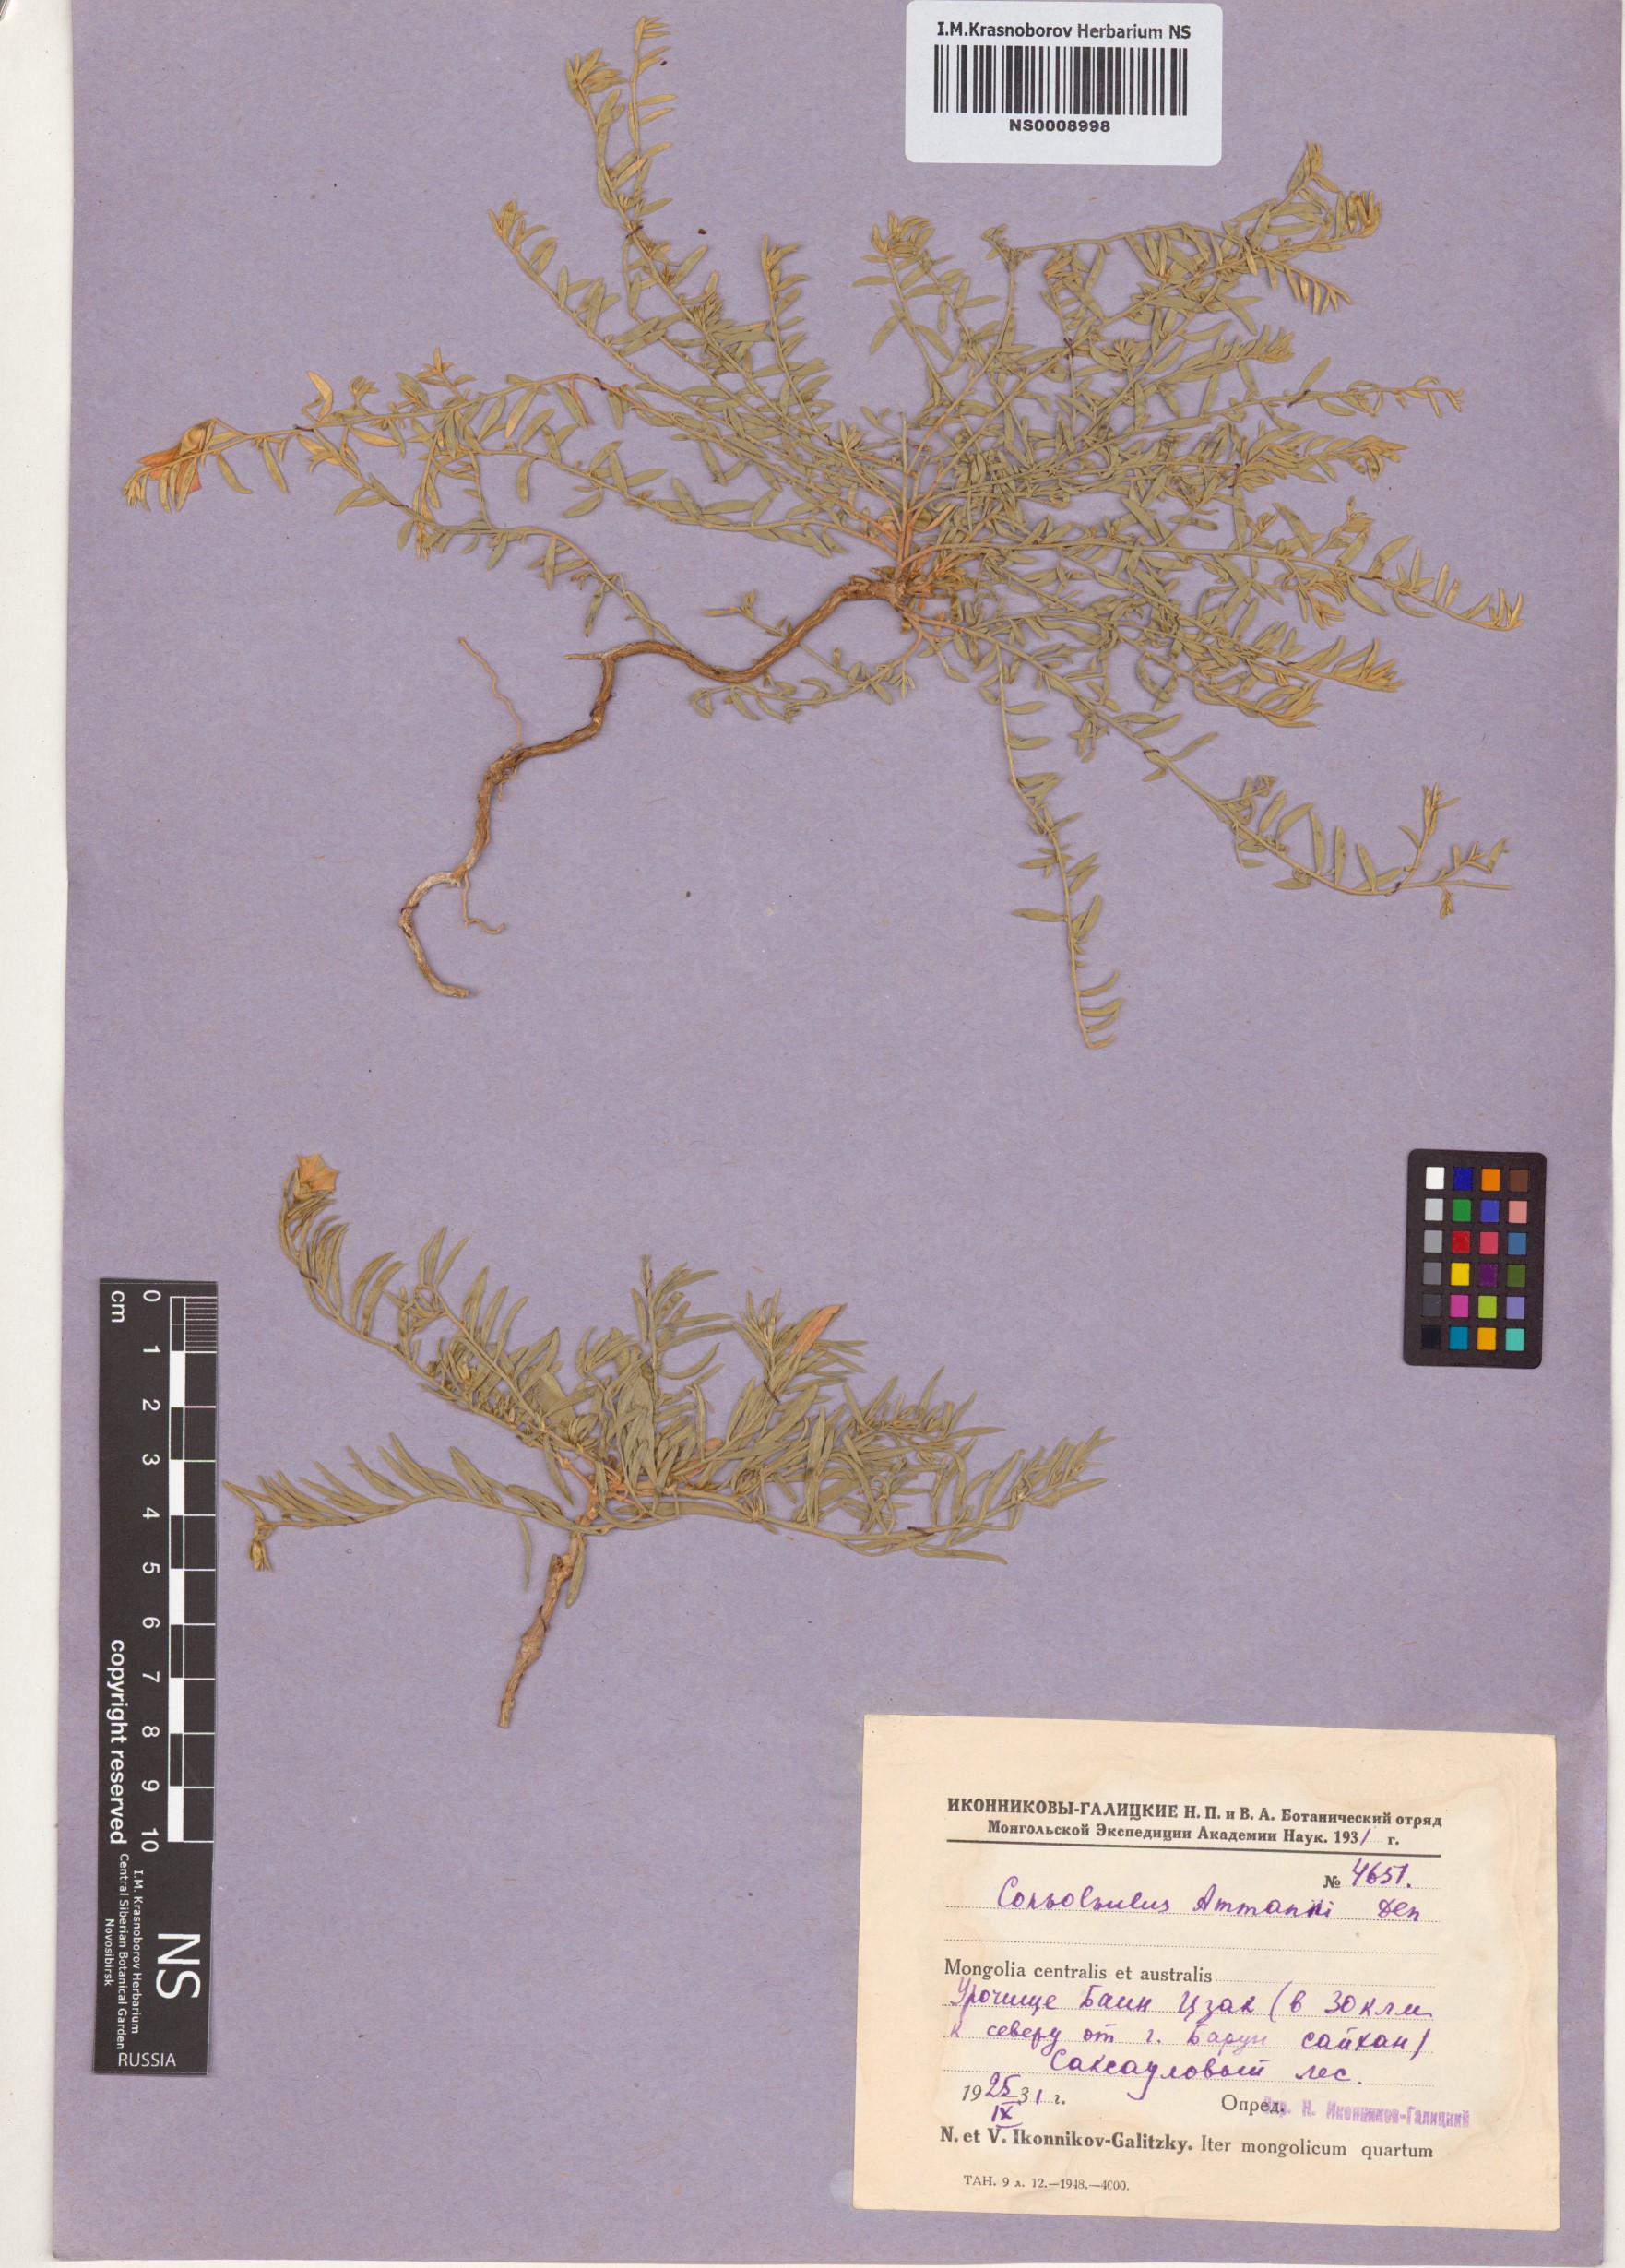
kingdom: Plantae
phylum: Tracheophyta
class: Magnoliopsida
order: Solanales
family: Convolvulaceae
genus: Convolvulus
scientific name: Convolvulus ammannii
